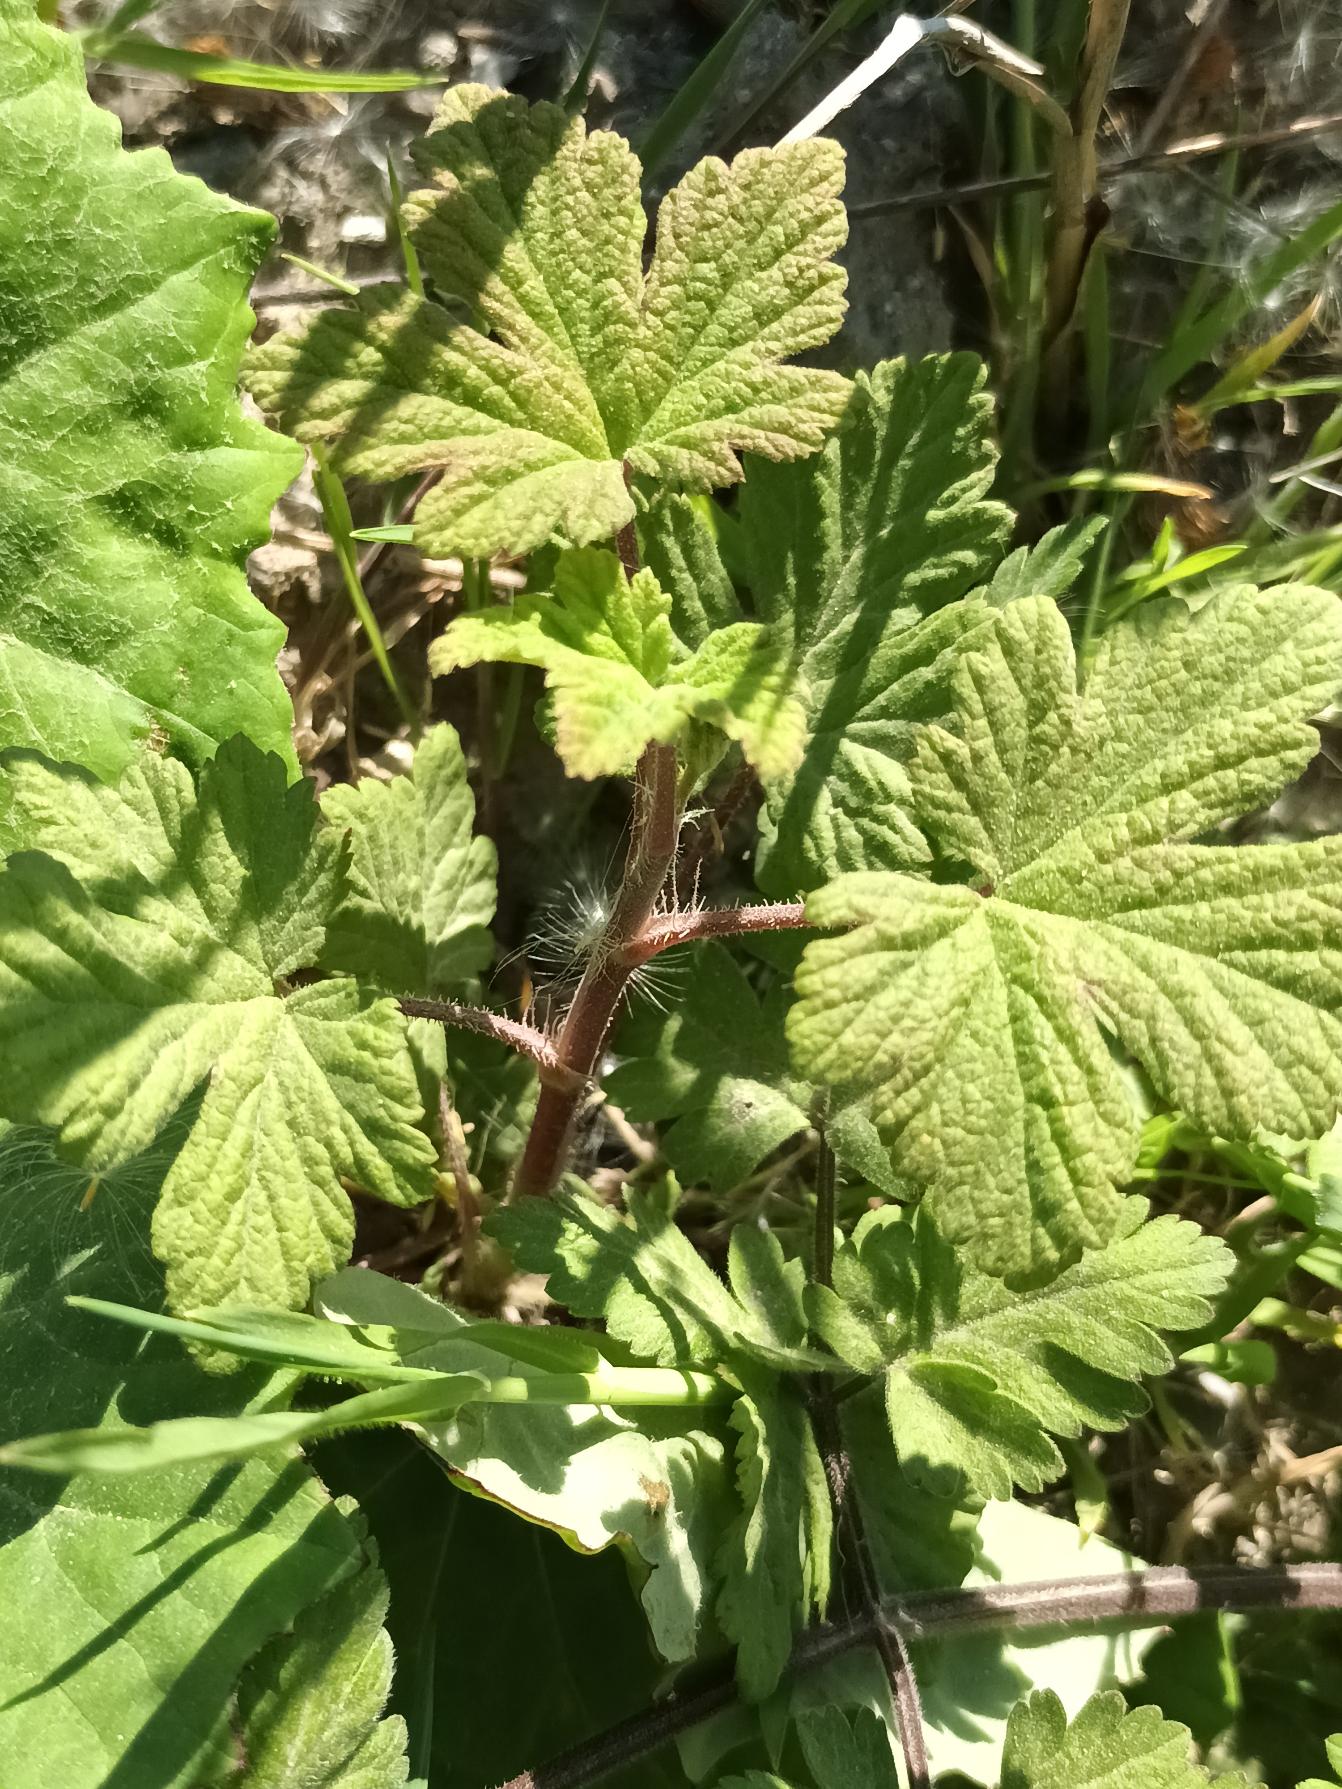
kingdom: Plantae
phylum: Tracheophyta
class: Magnoliopsida
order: Saxifragales
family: Grossulariaceae
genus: Ribes
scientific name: Ribes sanguineum
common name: Blod-ribs
